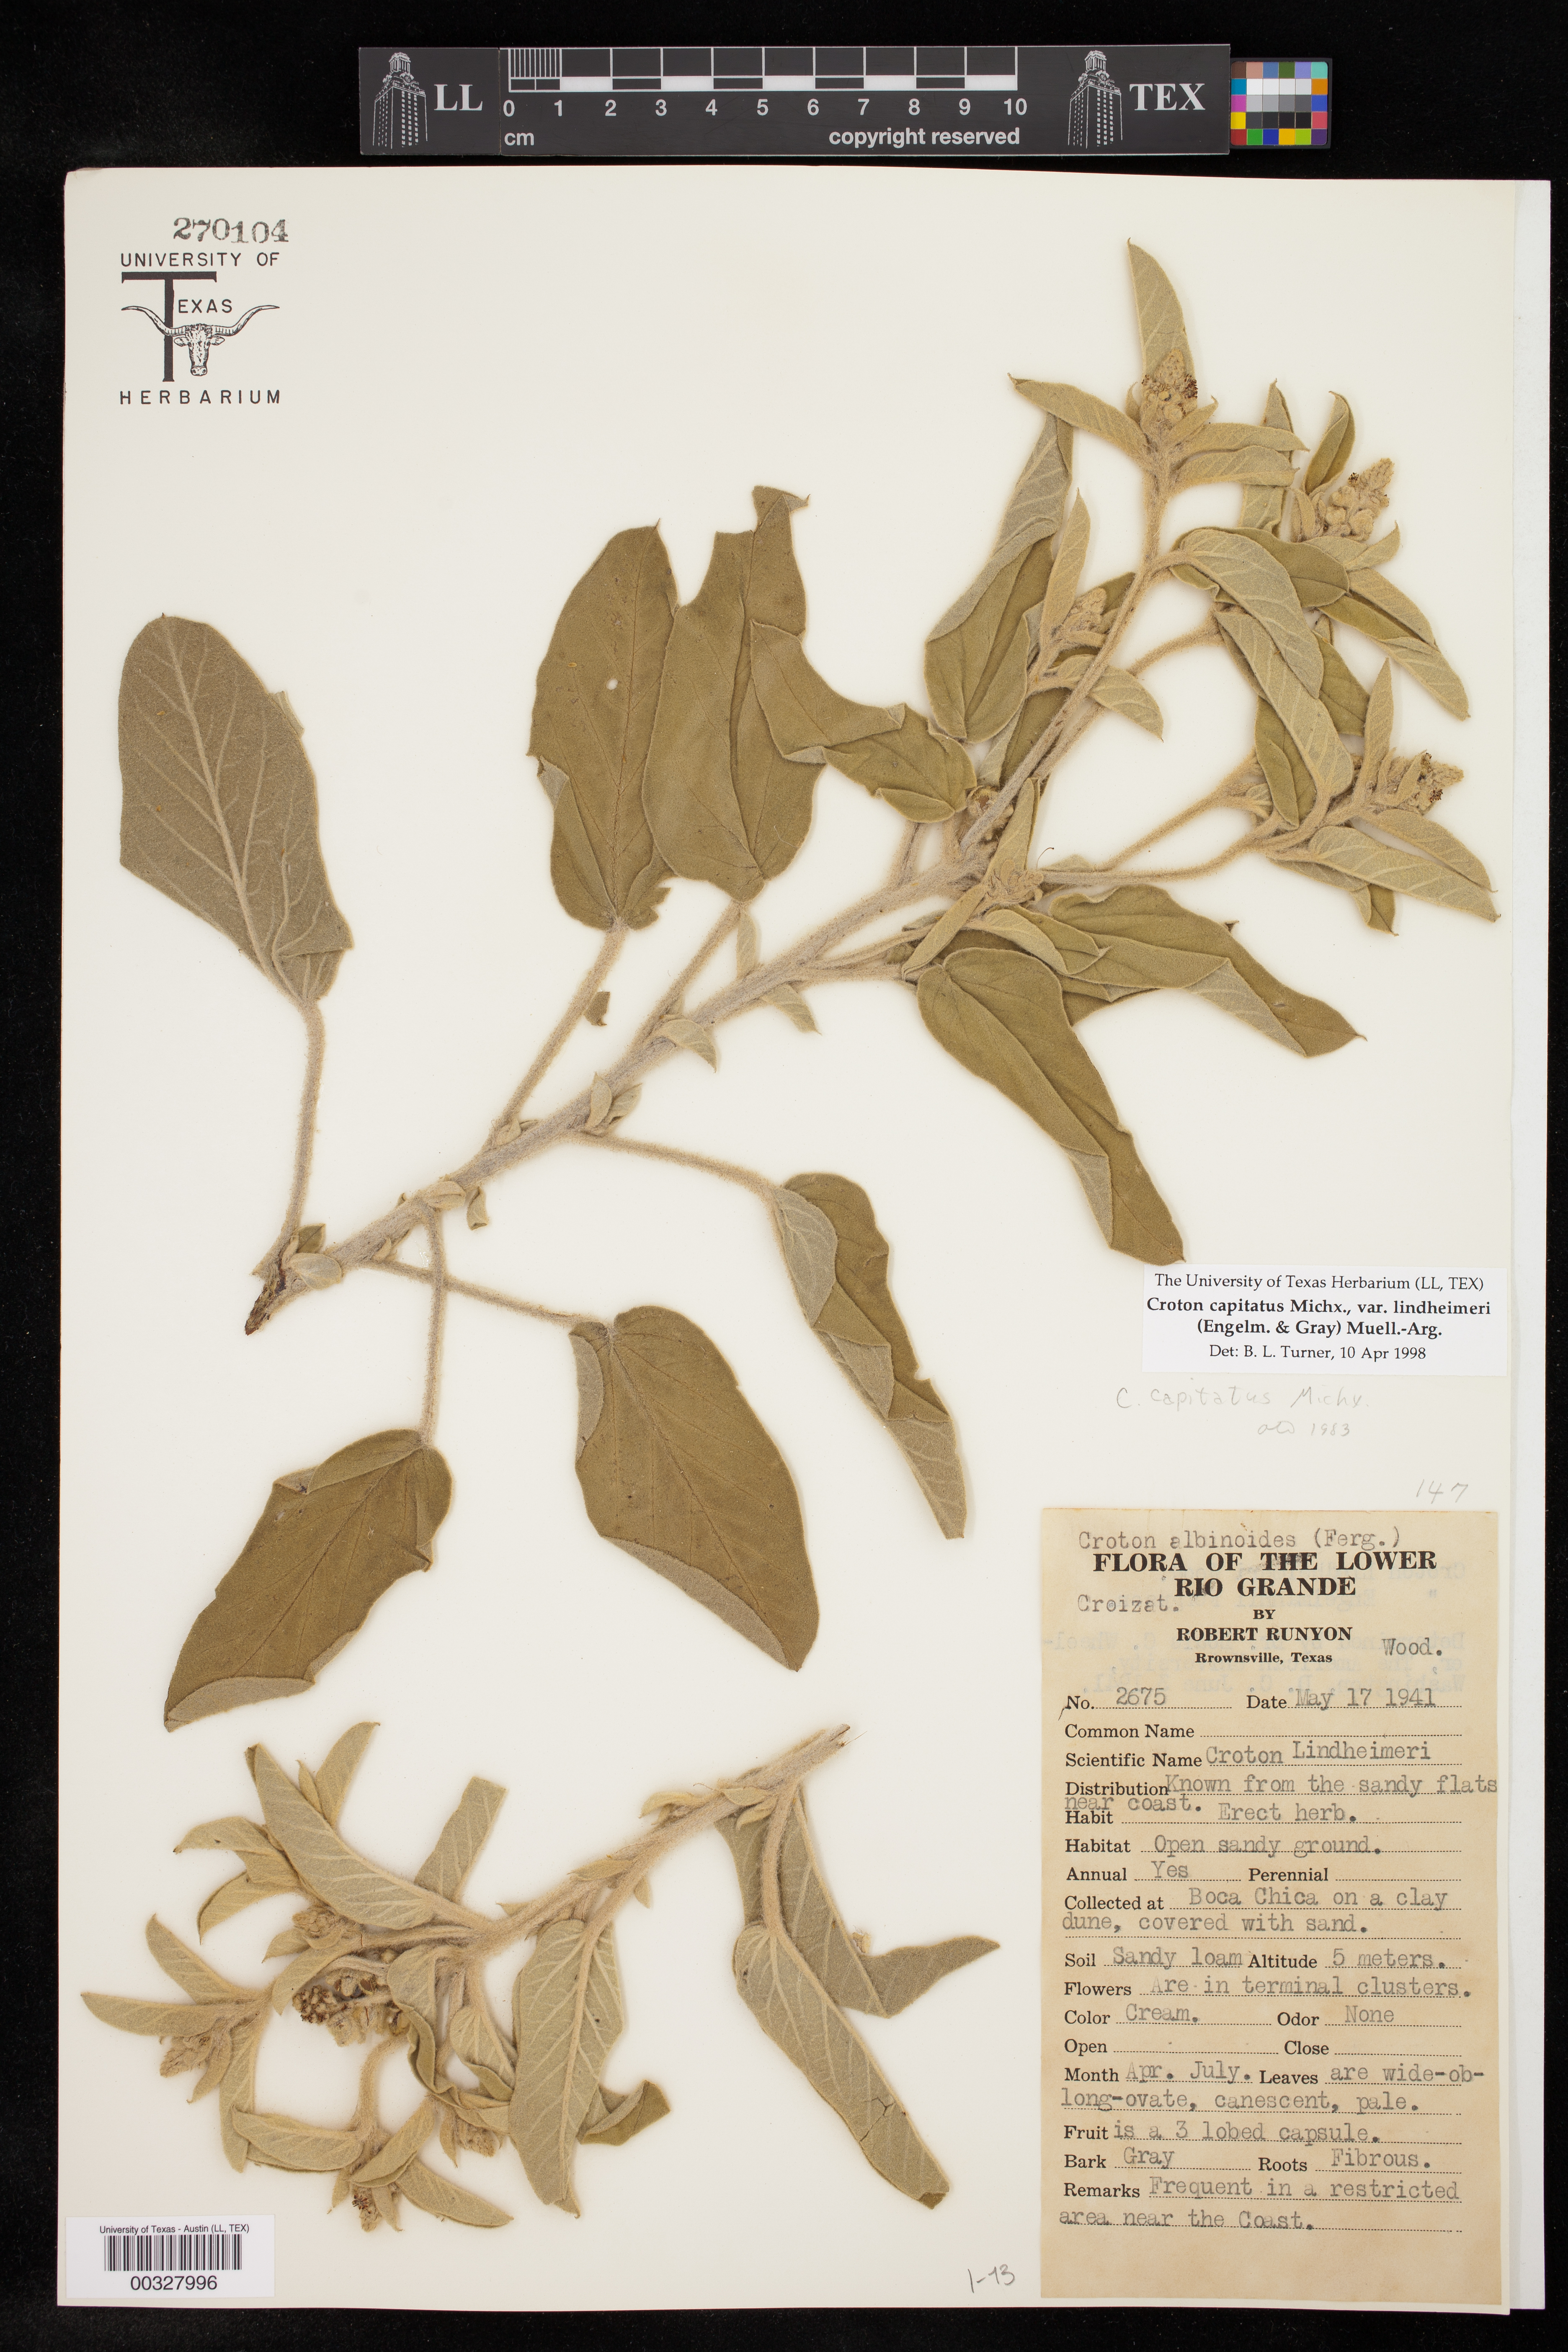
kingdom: Plantae
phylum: Tracheophyta
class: Magnoliopsida
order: Malpighiales
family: Euphorbiaceae
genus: Croton
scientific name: Croton lindheimeri
